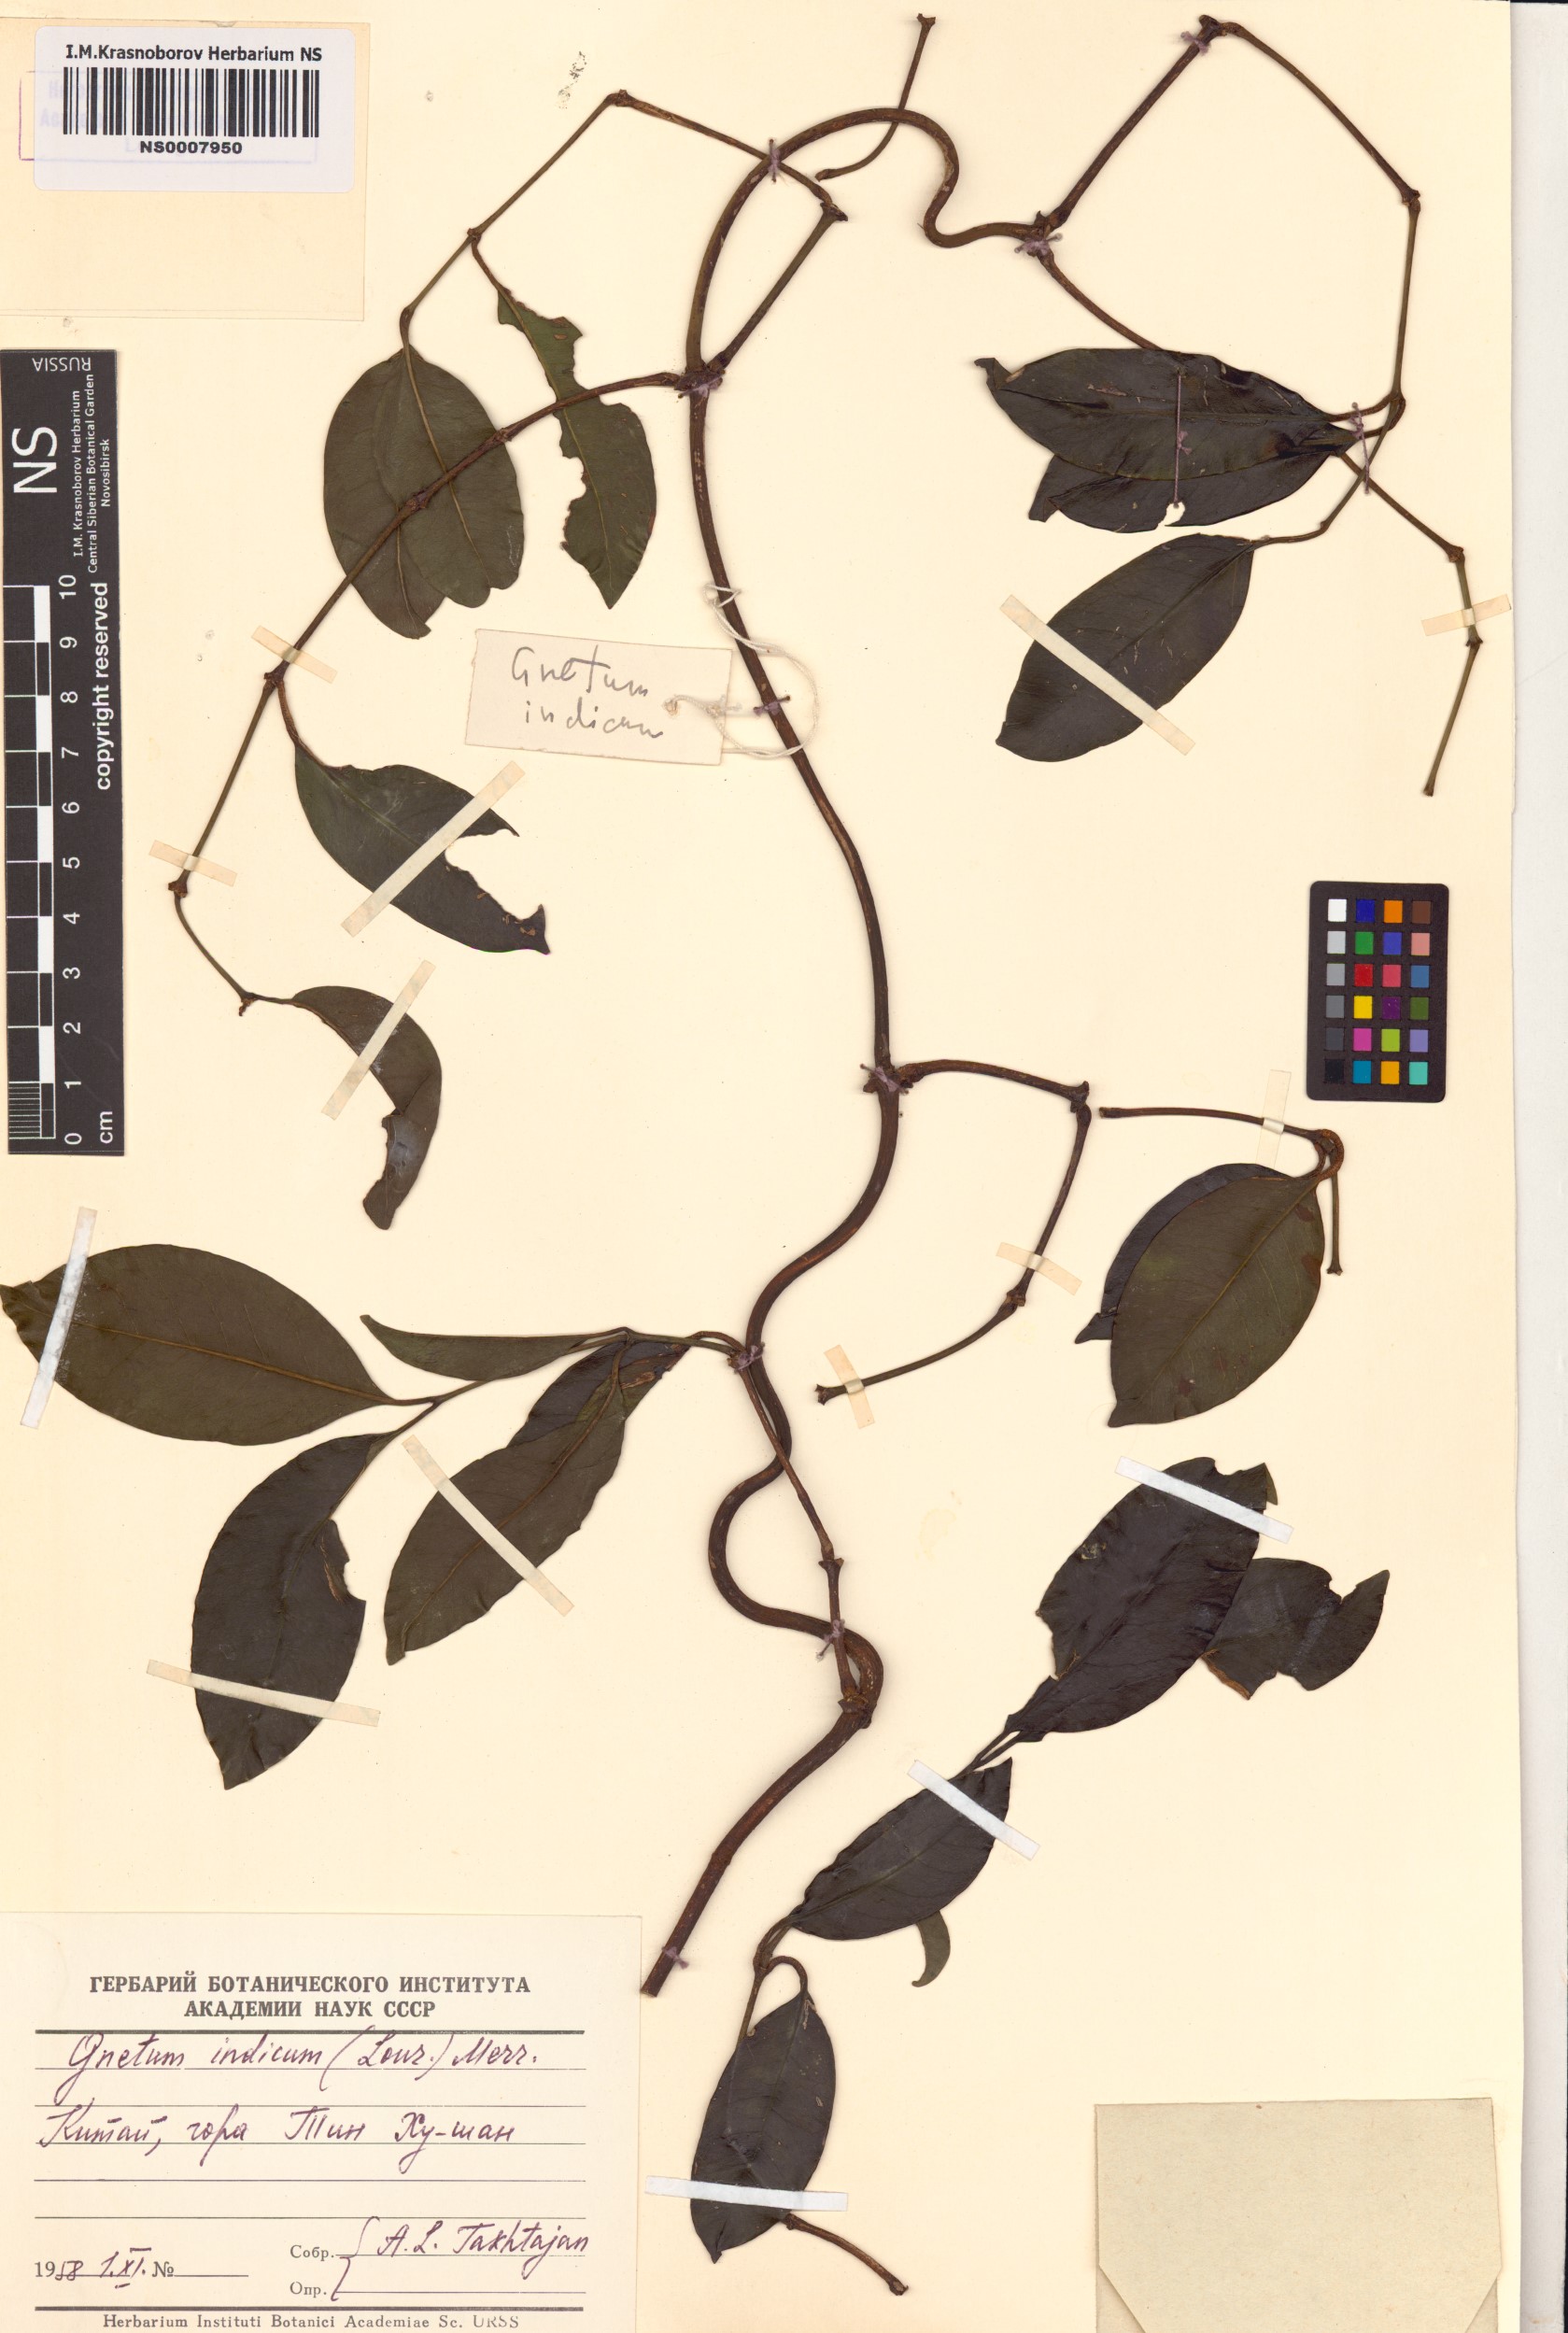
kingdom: Plantae
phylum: Tracheophyta
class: Gnetopsida
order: Gnetales
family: Gnetaceae
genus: Gnetum
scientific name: Gnetum parvifolium
